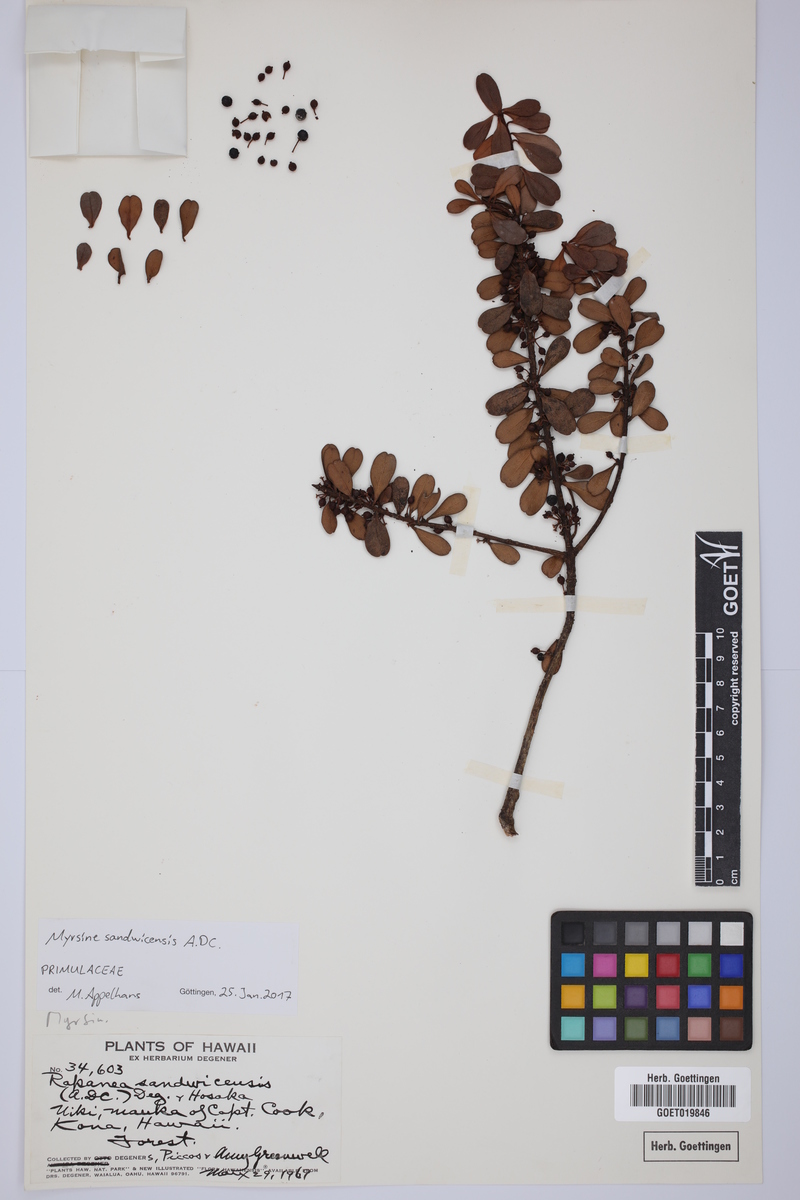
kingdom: Plantae
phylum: Tracheophyta
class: Magnoliopsida
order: Ericales
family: Primulaceae
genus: Myrsine
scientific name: Myrsine sandwicensis
